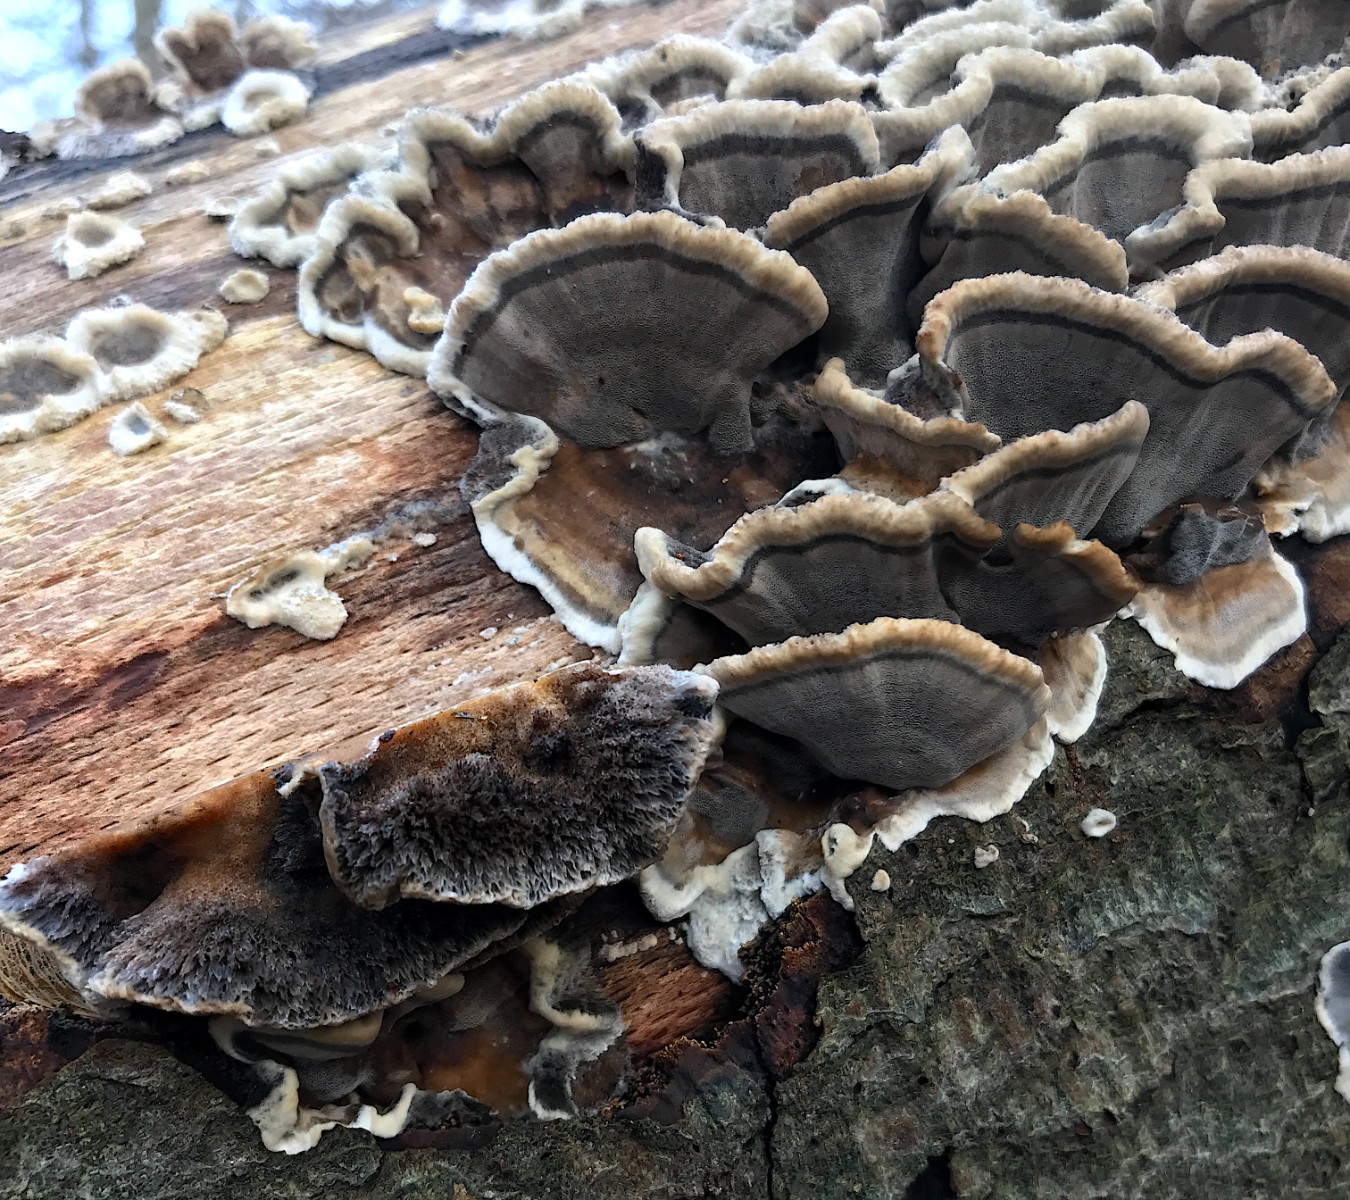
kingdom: Fungi
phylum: Basidiomycota
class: Agaricomycetes
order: Polyporales
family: Phanerochaetaceae
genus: Bjerkandera
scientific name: Bjerkandera adusta
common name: sveden sodporesvamp
